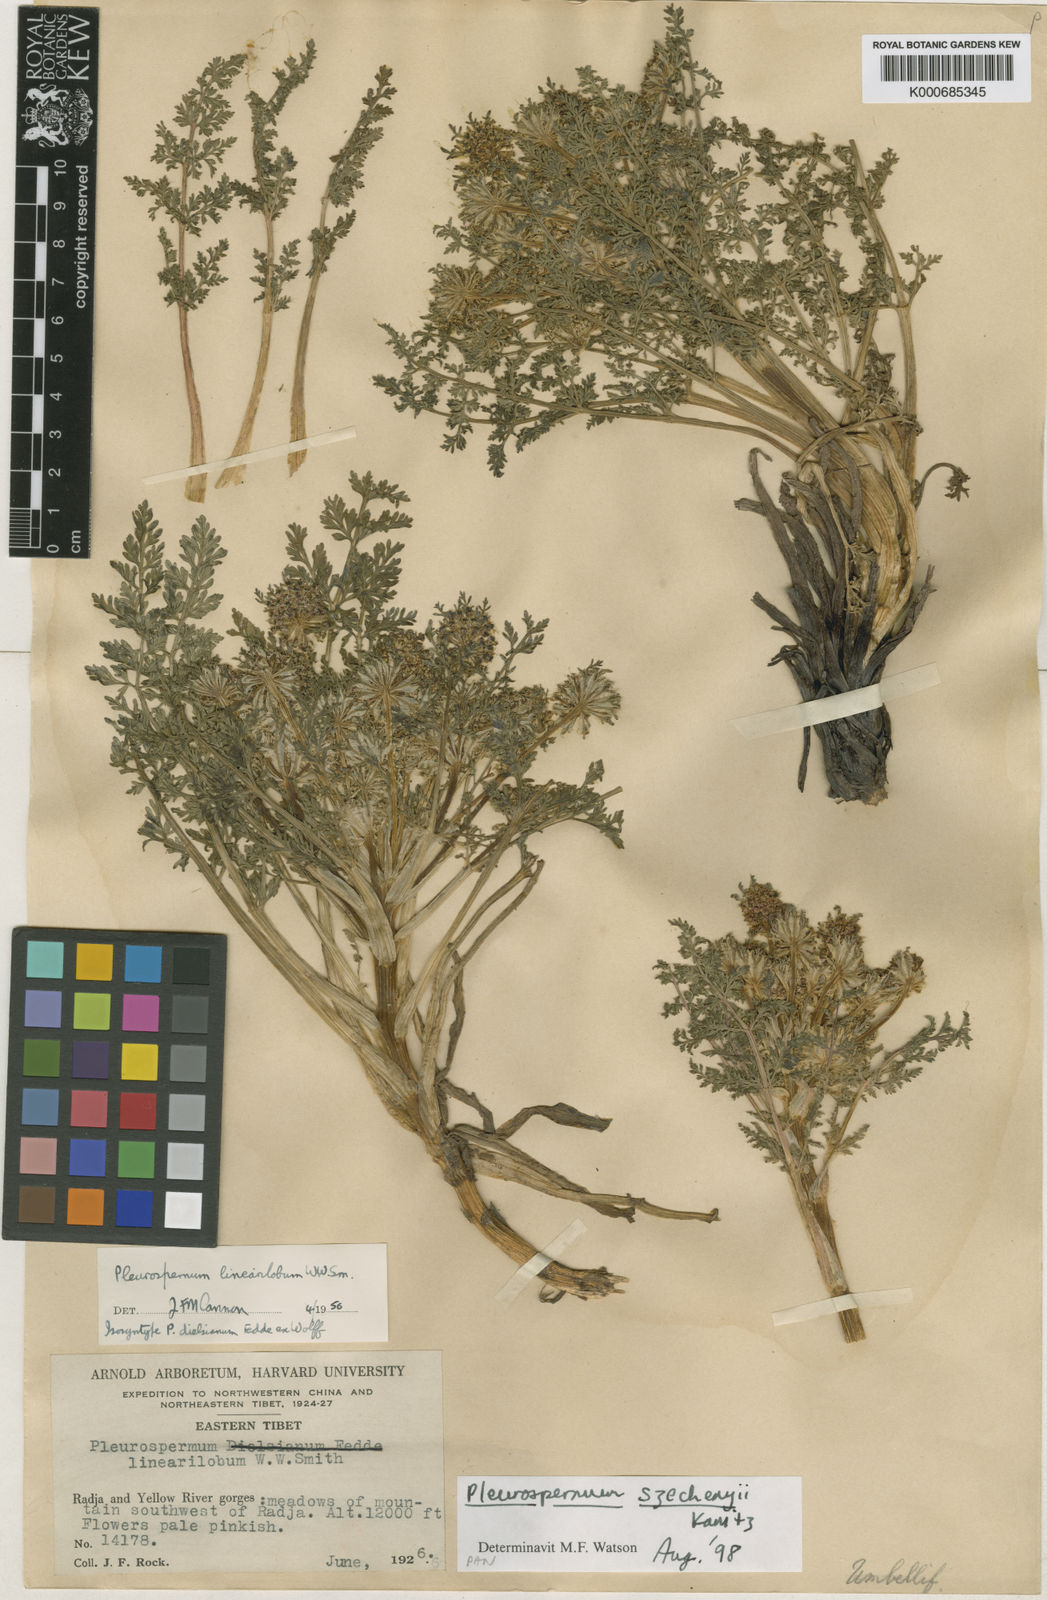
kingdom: Plantae
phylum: Tracheophyta
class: Magnoliopsida
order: Apiales
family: Apiaceae
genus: Hymenidium
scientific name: Hymenidium szechenyi
